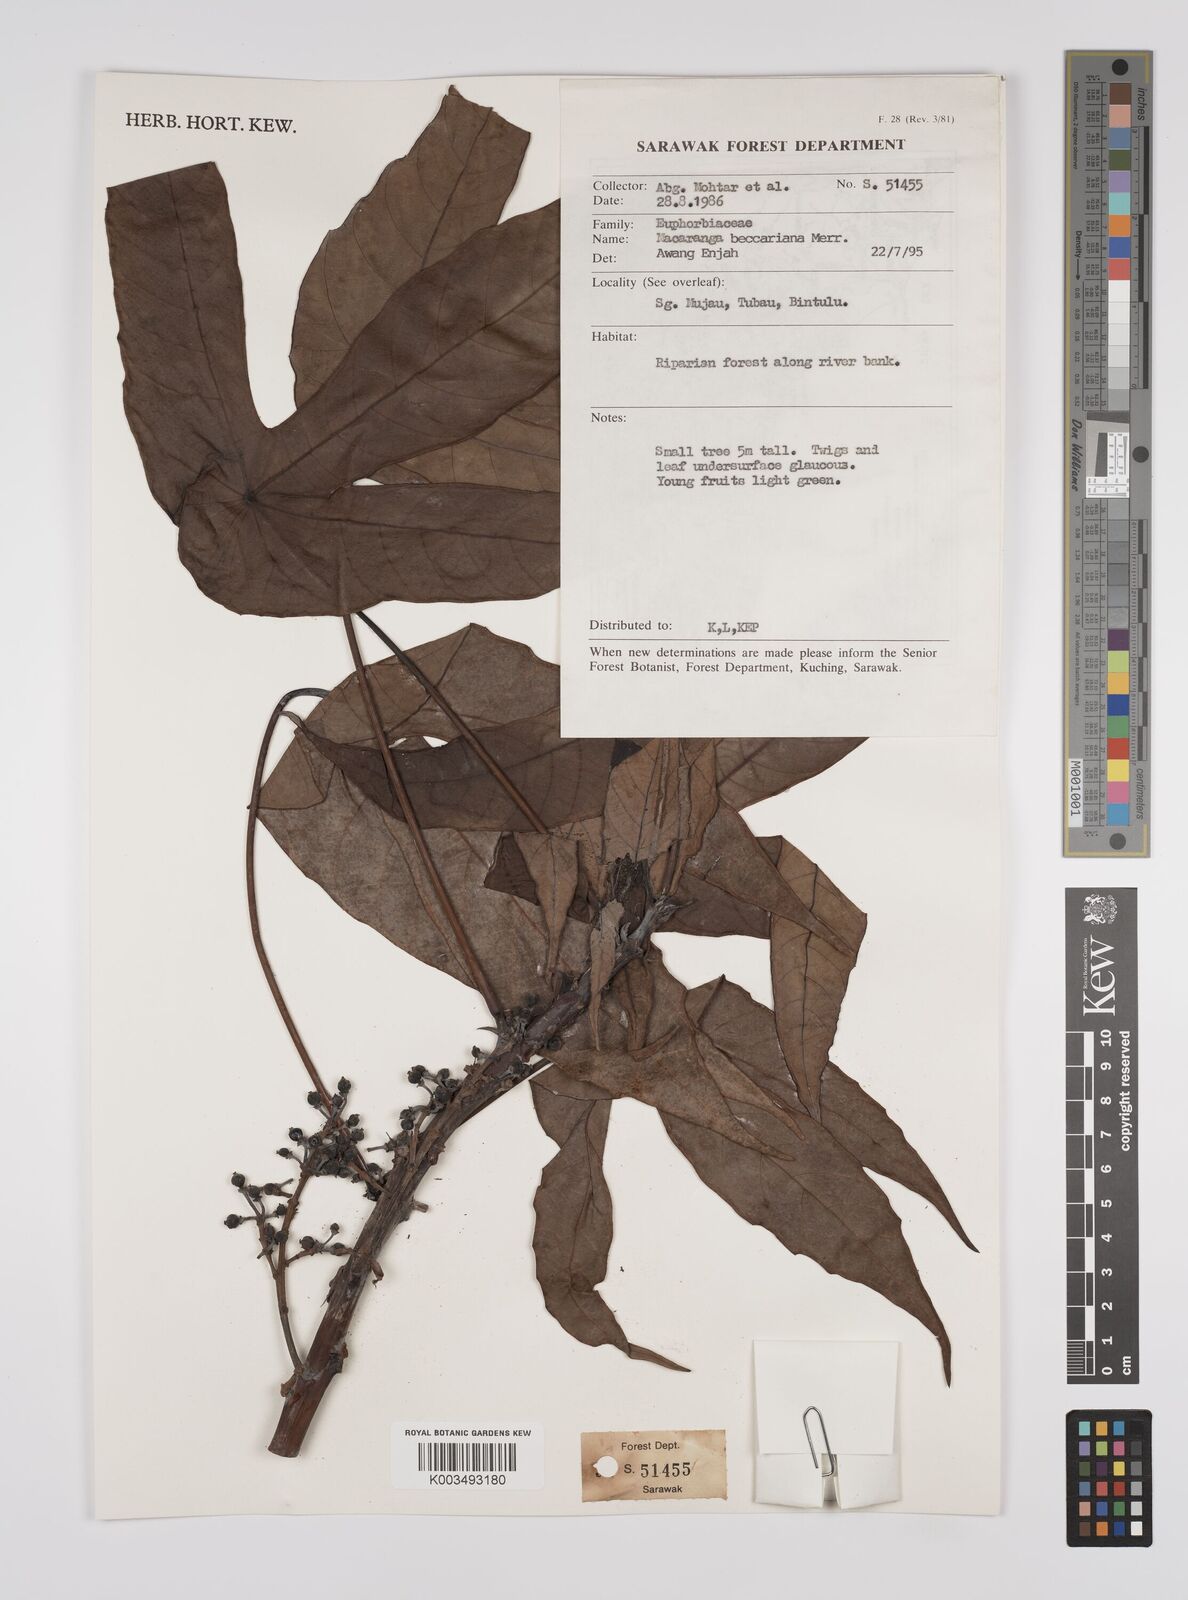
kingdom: Plantae
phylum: Tracheophyta
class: Magnoliopsida
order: Malpighiales
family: Euphorbiaceae
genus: Macaranga
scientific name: Macaranga beccariana
